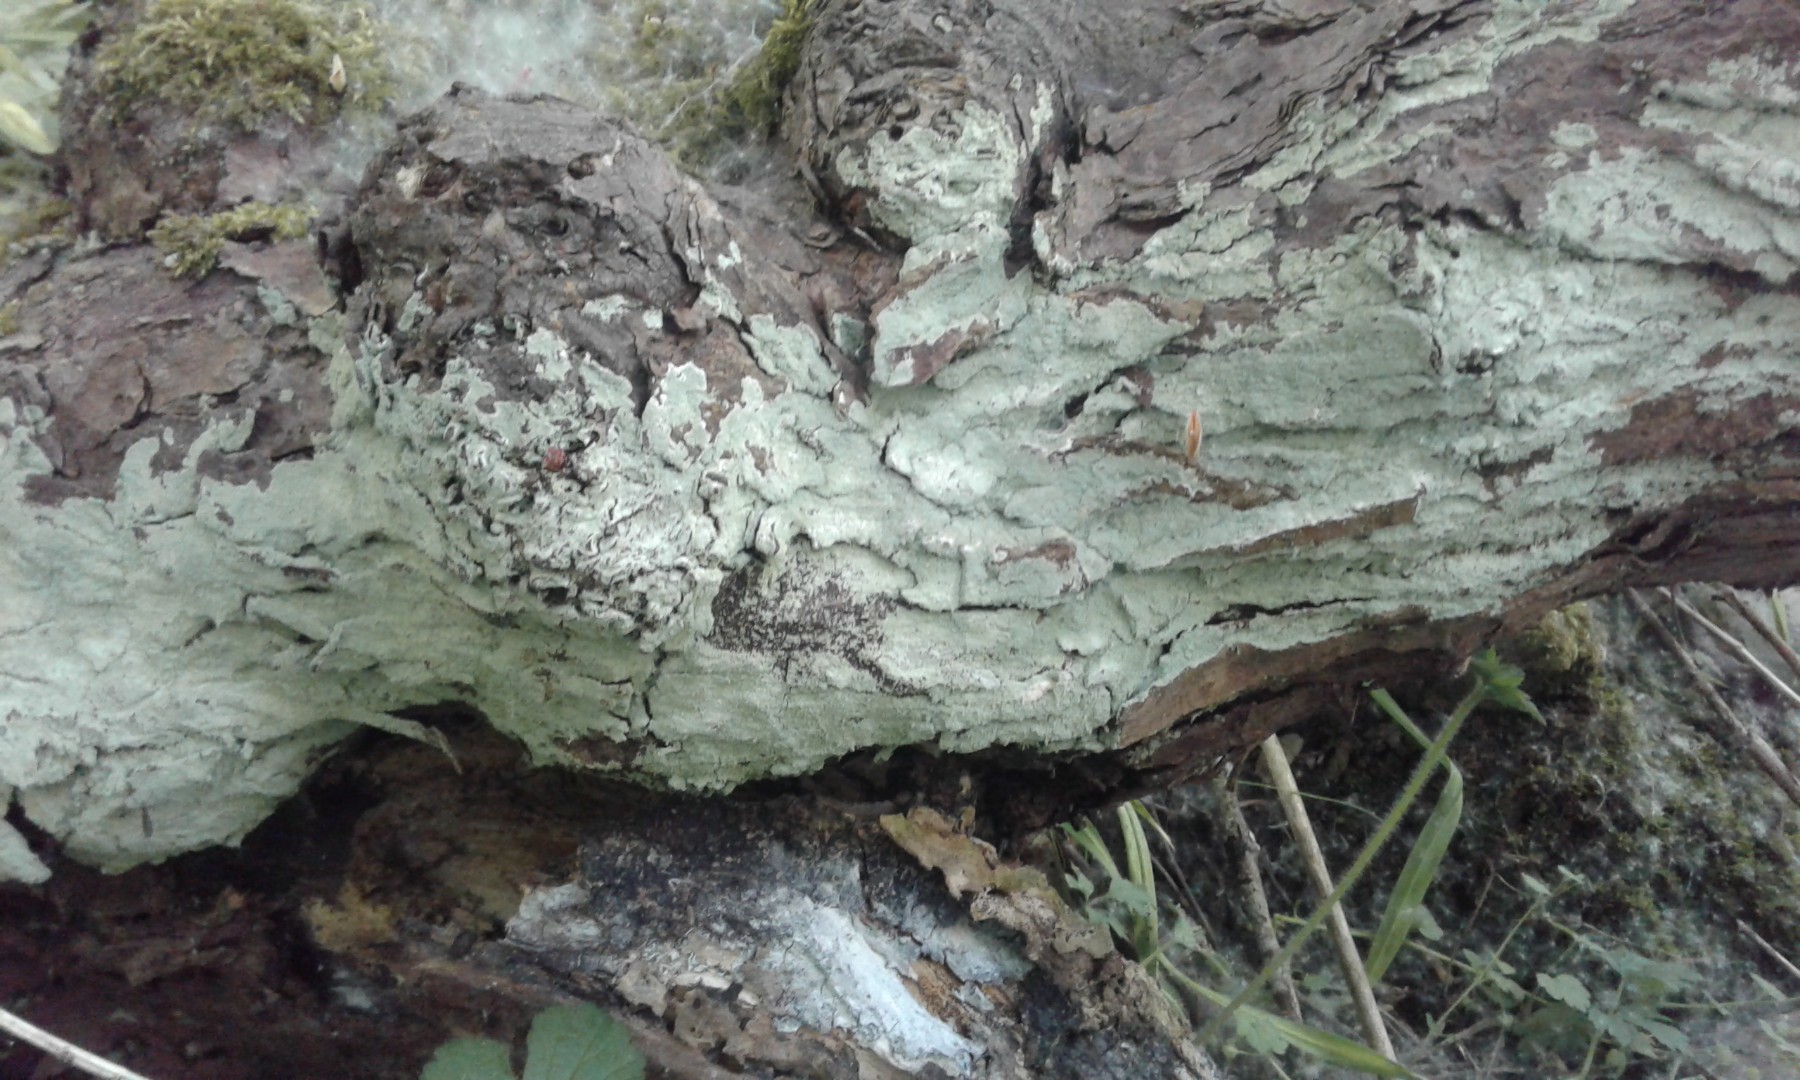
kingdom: Fungi
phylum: Ascomycota
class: Lecanoromycetes
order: Lecanorales
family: Stereocaulaceae
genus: Lepraria
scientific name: Lepraria
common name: støvlav
